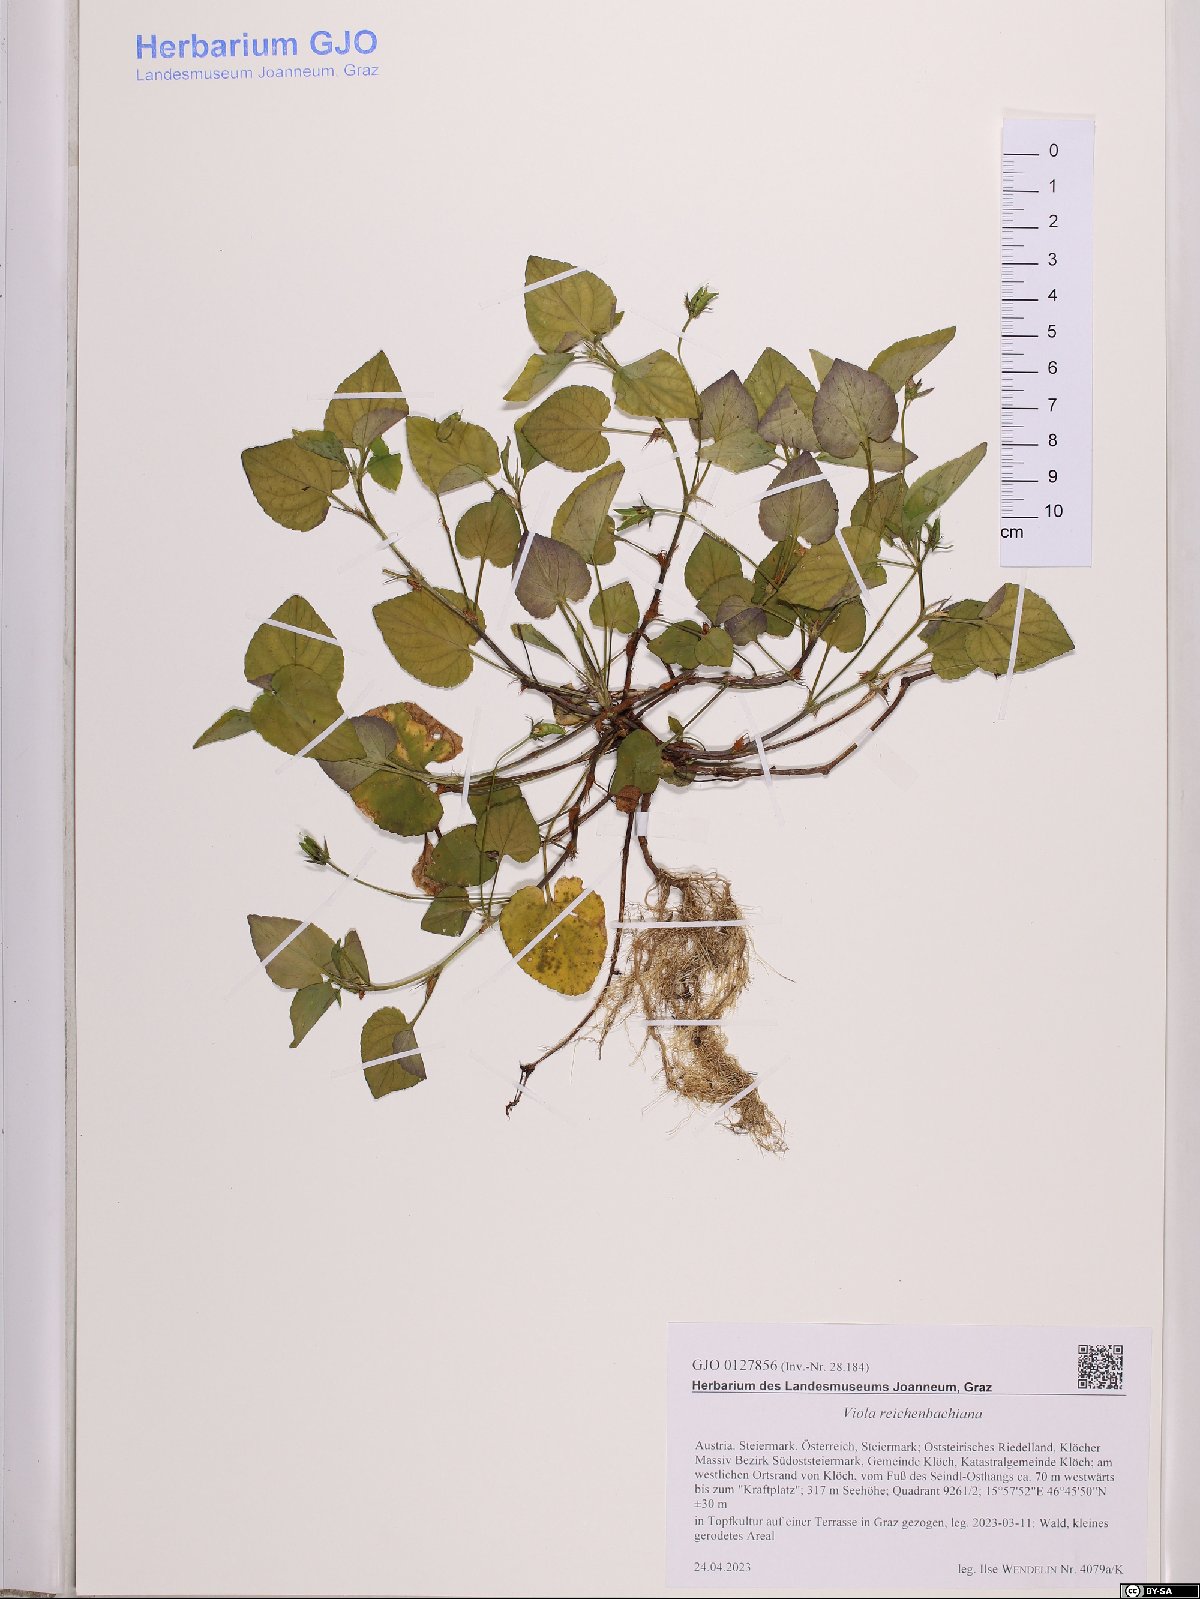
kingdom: Plantae
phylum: Tracheophyta
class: Magnoliopsida
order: Malpighiales
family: Violaceae
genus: Viola
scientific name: Viola reichenbachiana
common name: Early dog-violet
